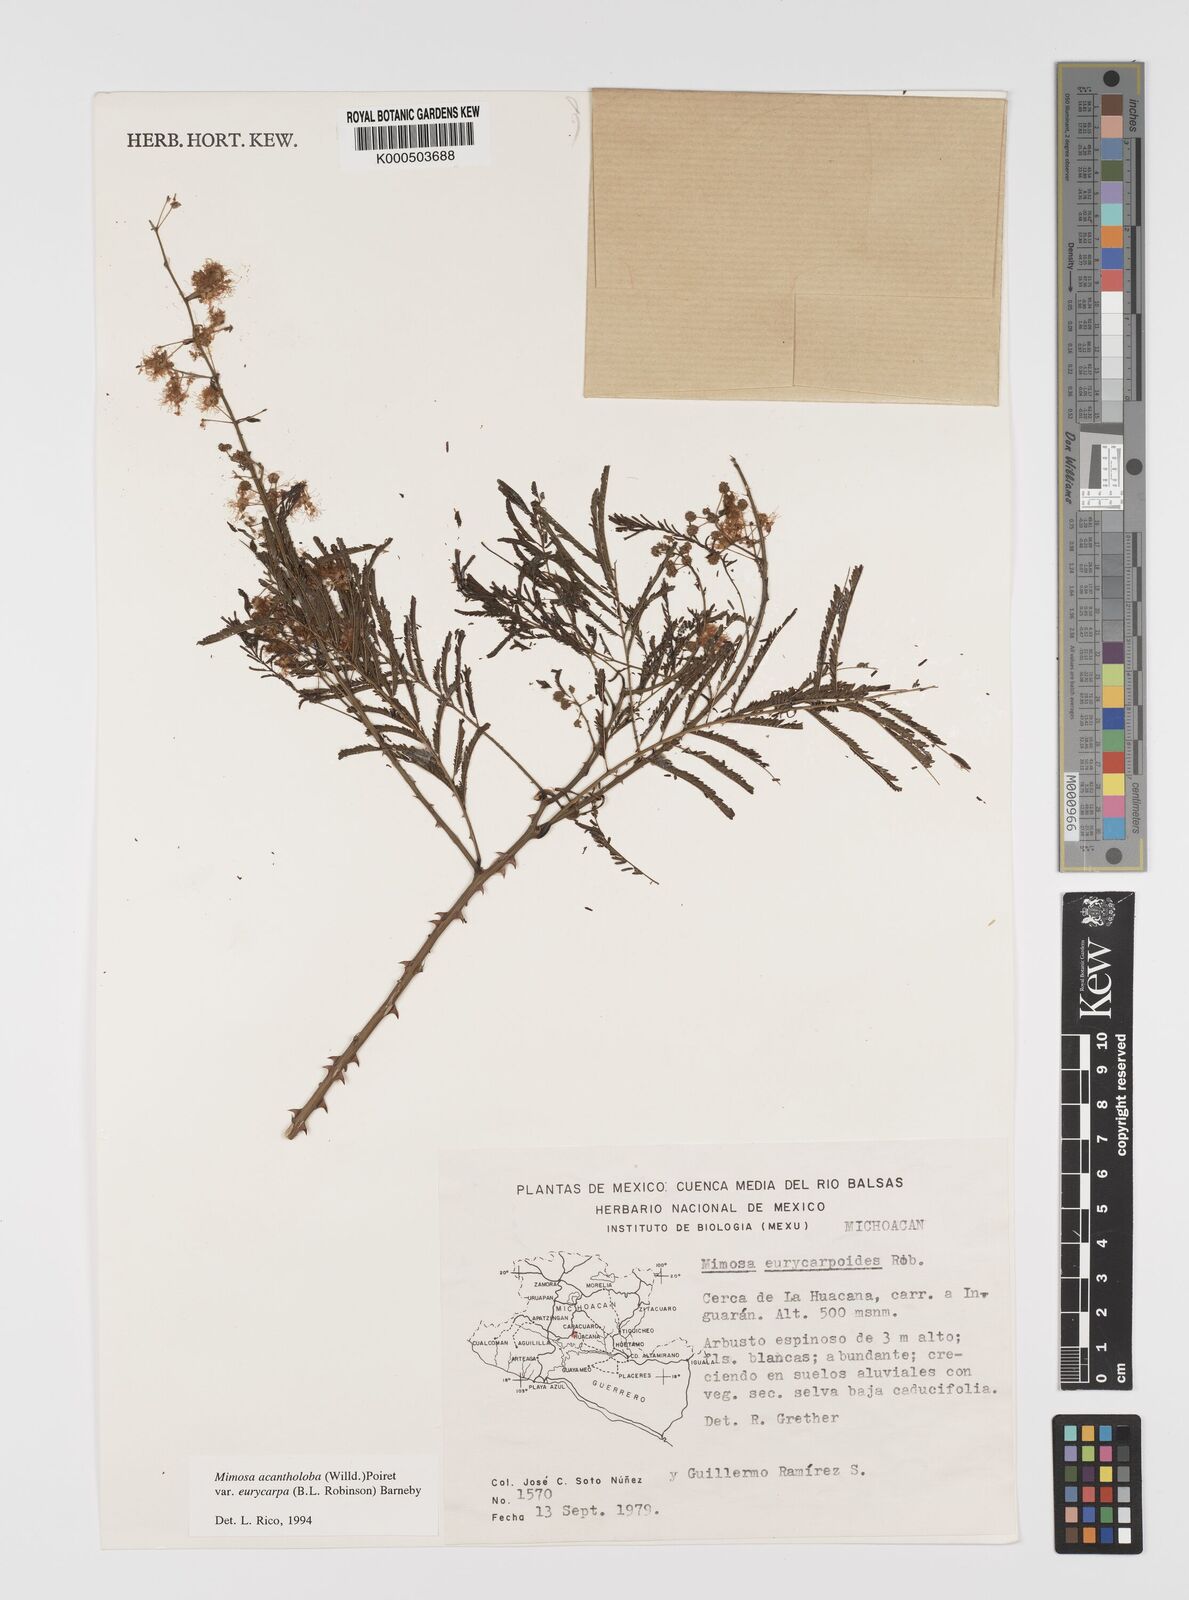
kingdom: Plantae
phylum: Tracheophyta
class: Magnoliopsida
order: Fabales
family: Fabaceae
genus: Mimosa
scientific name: Mimosa acantholoba
